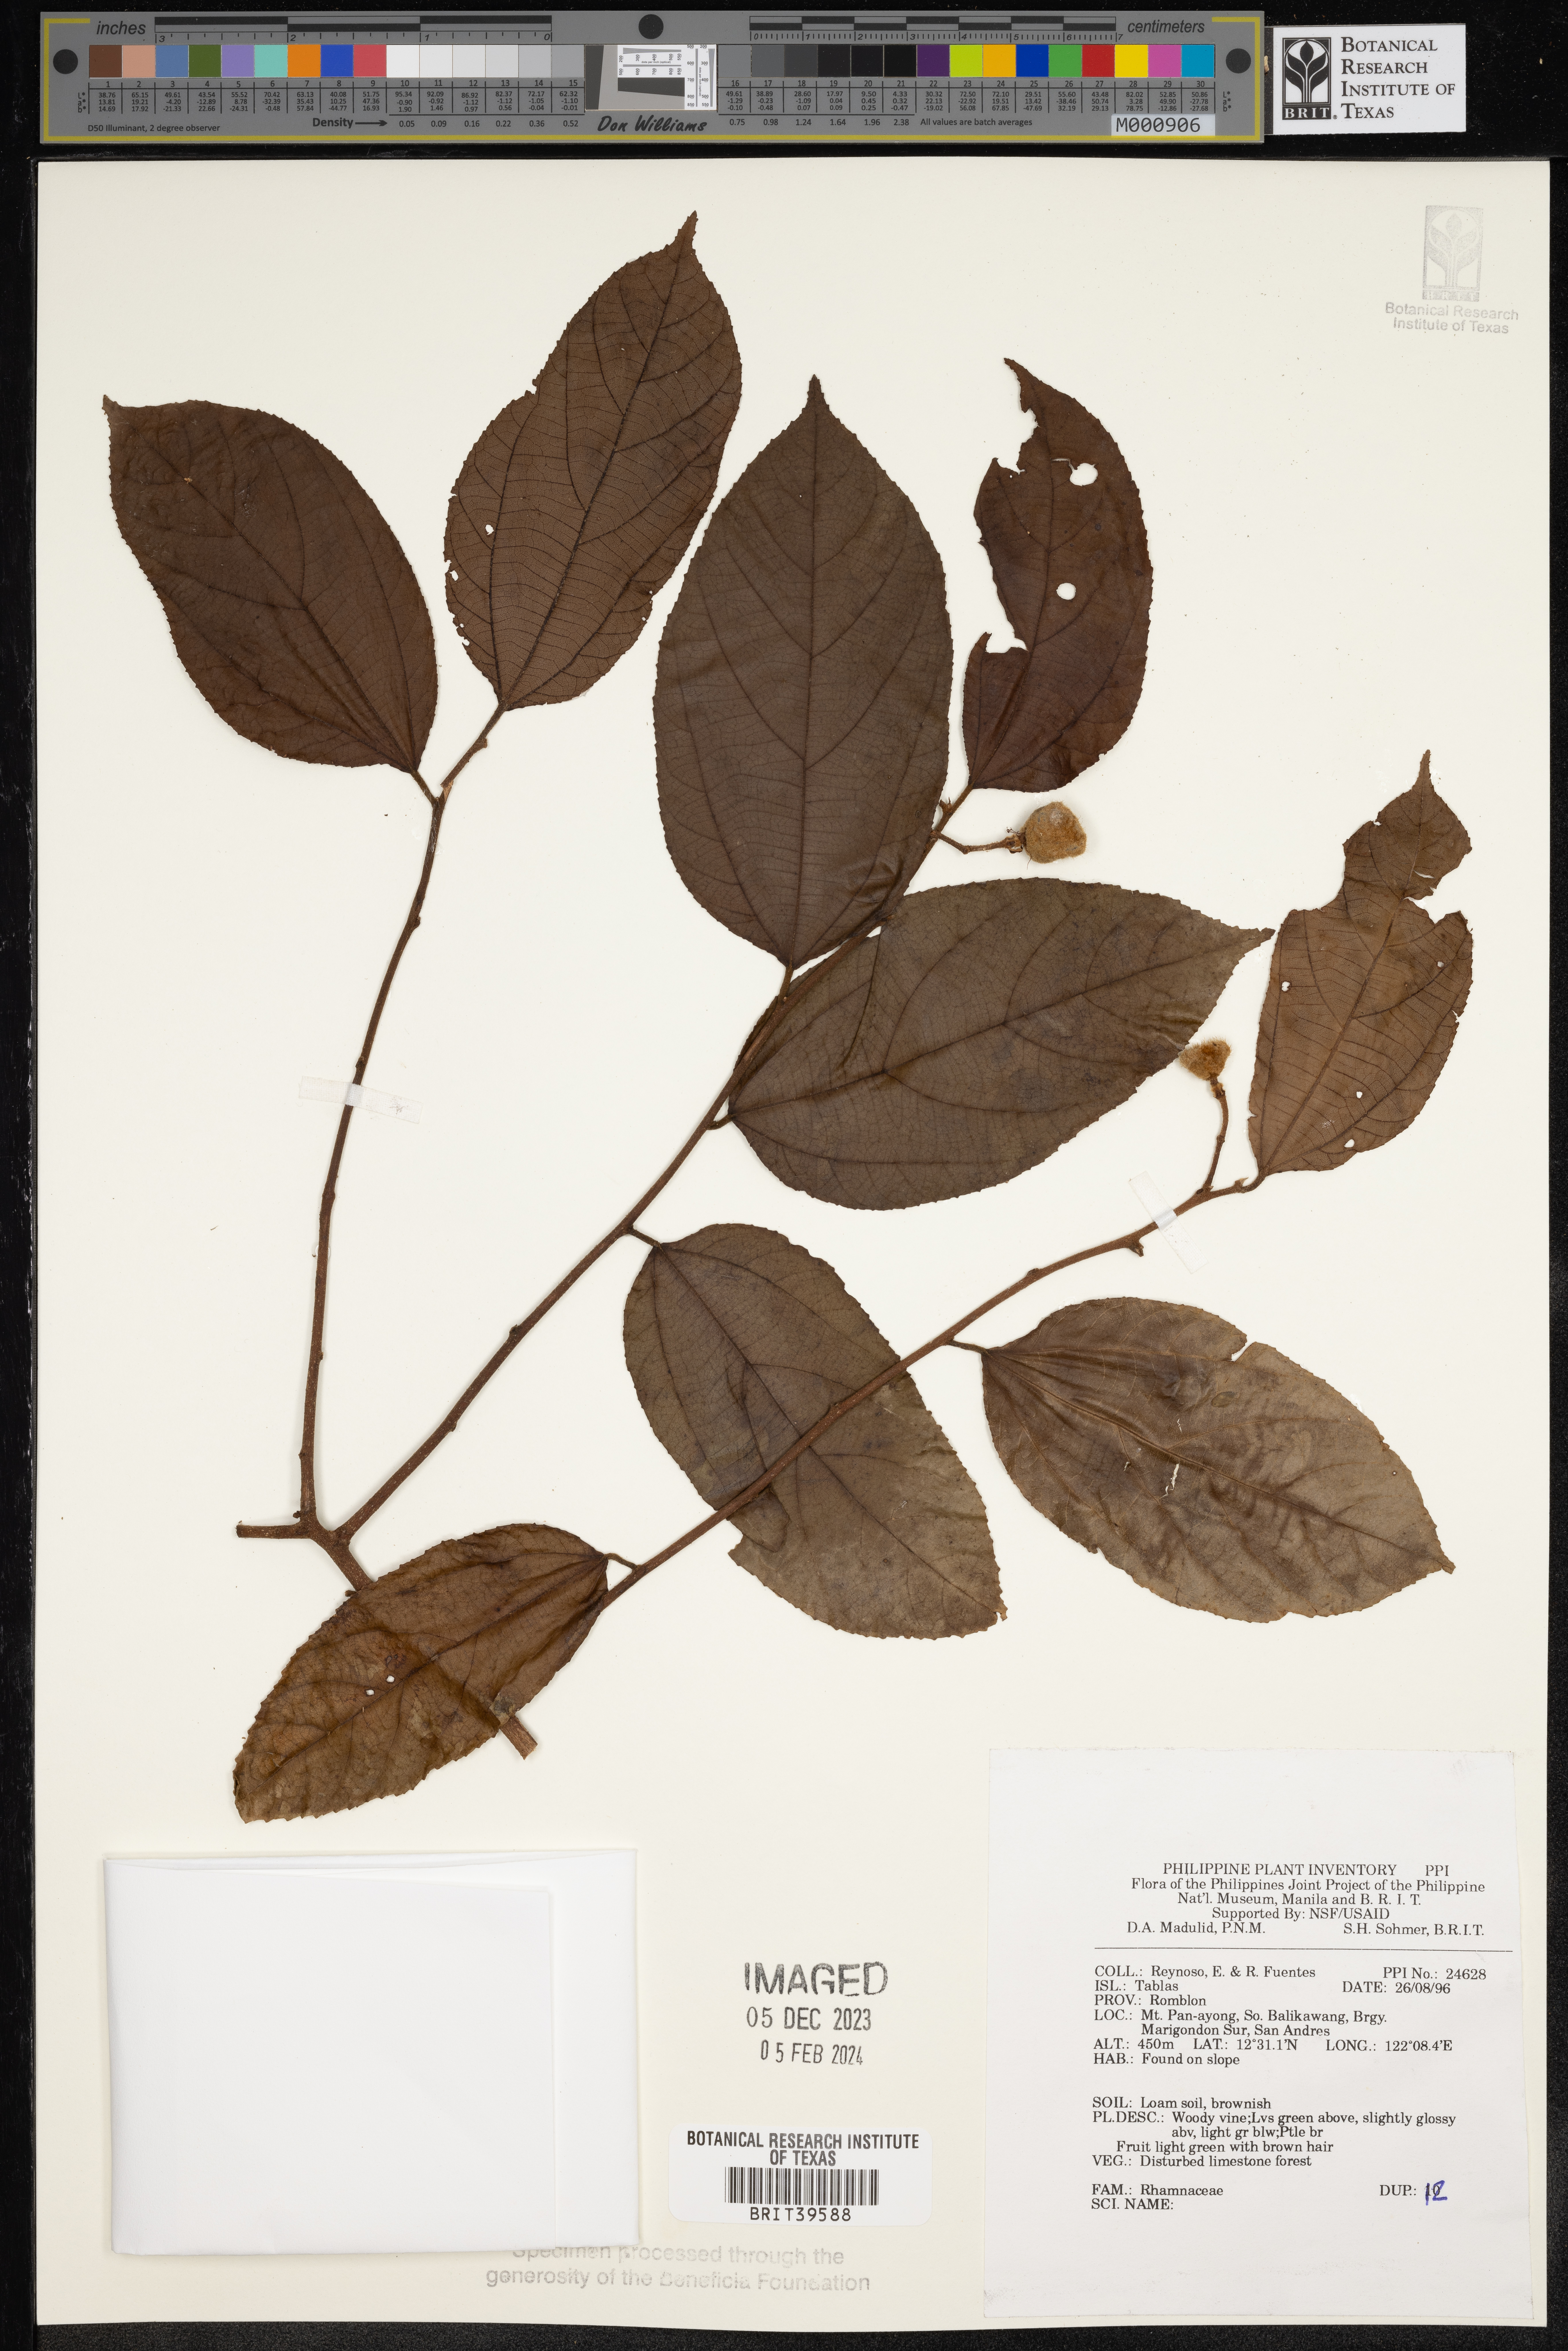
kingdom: Plantae
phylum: Tracheophyta
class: Magnoliopsida
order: Rosales
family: Rhamnaceae
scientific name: Rhamnaceae
